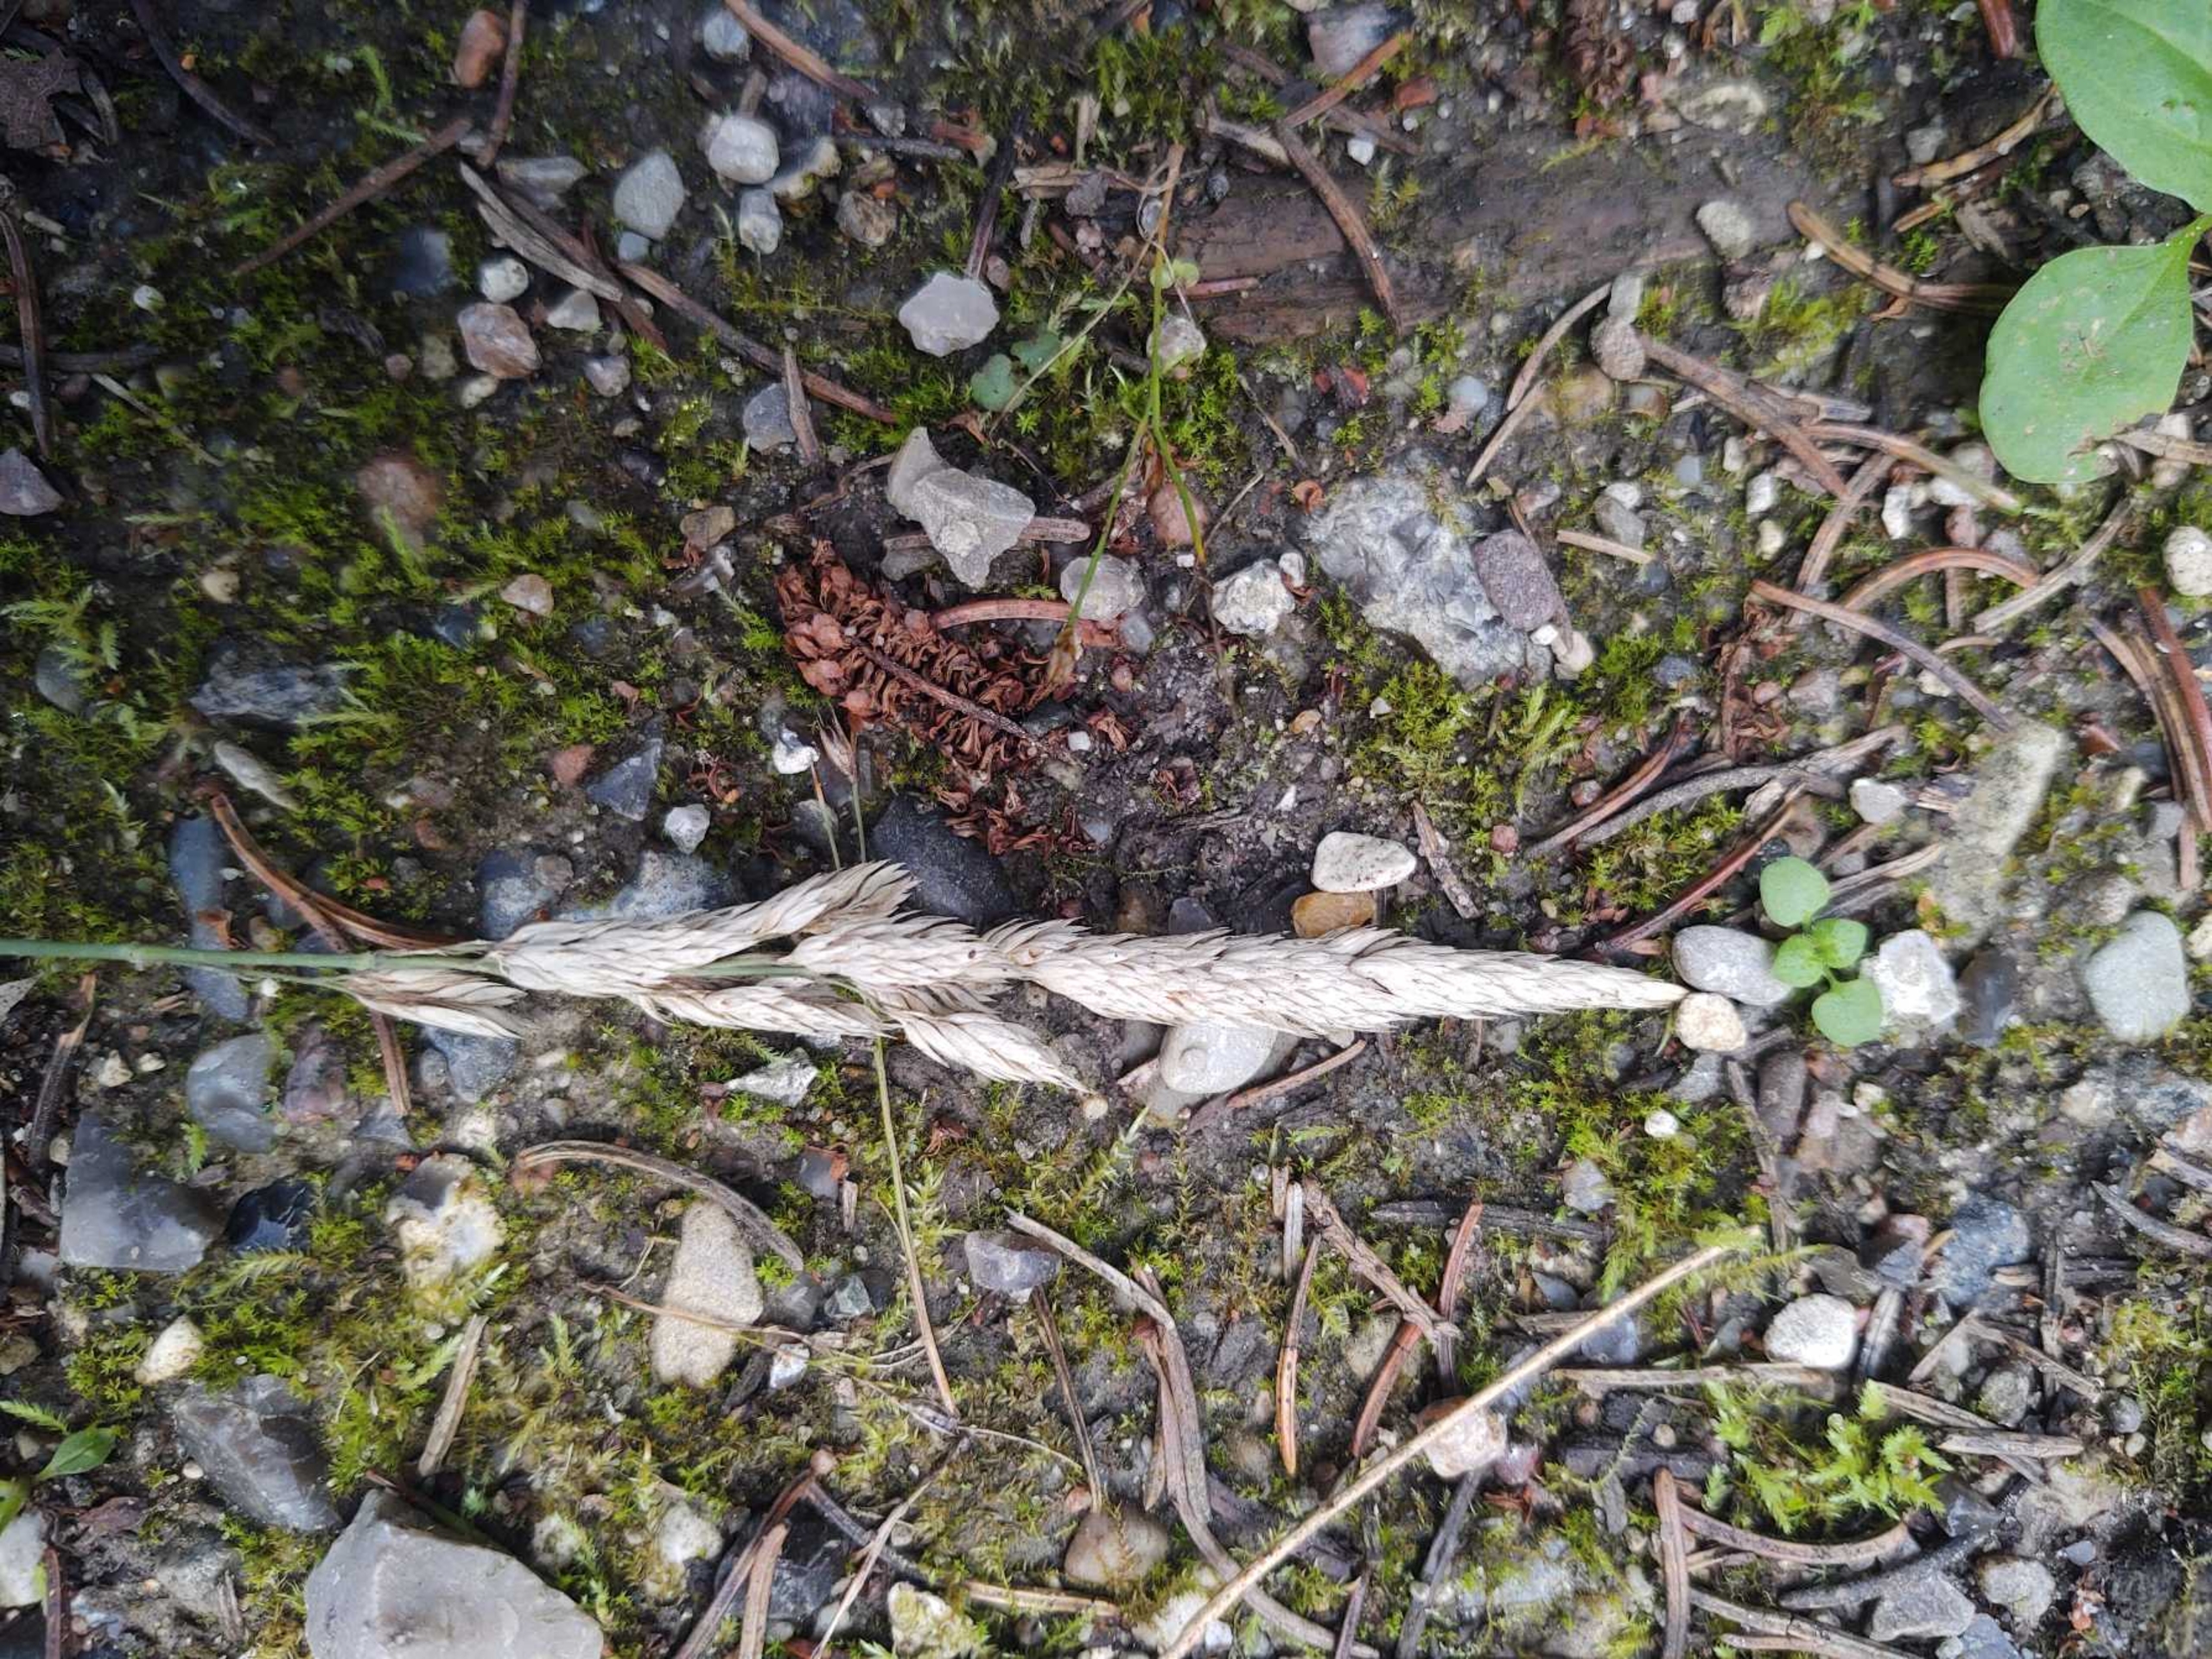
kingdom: Plantae
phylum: Tracheophyta
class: Liliopsida
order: Poales
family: Poaceae
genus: Phalaris
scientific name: Phalaris arundinacea
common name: Rørgræs
